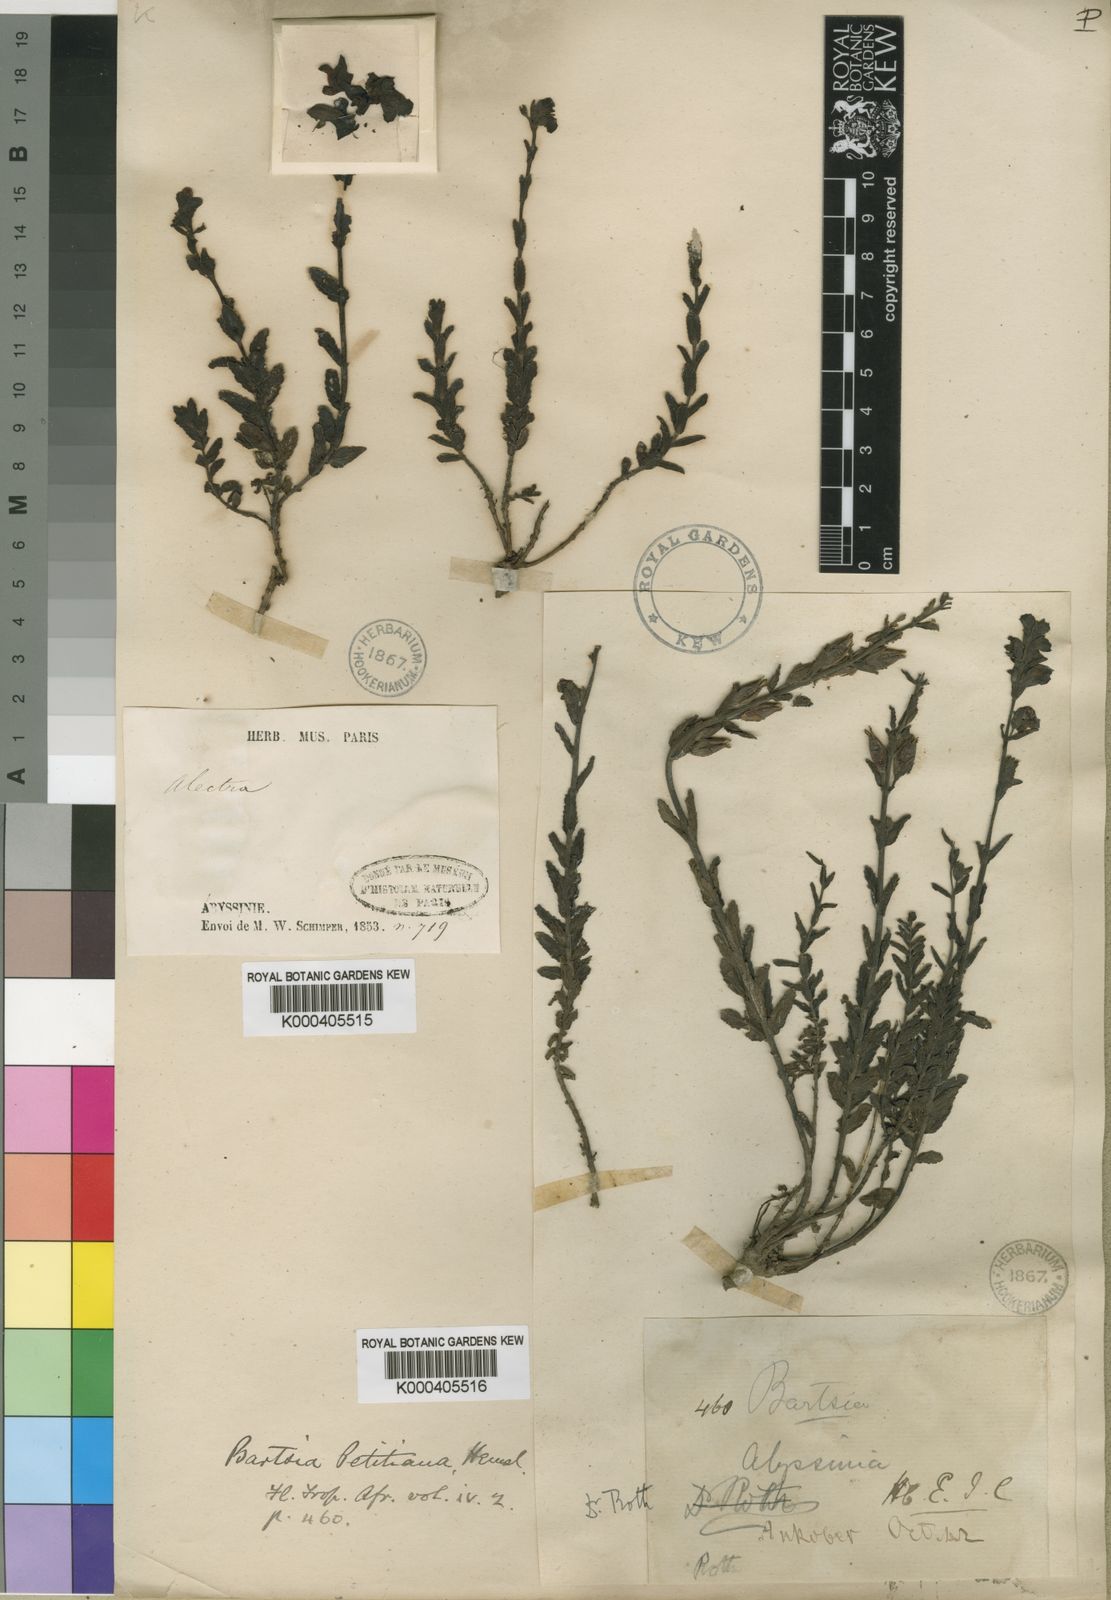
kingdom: Plantae
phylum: Tracheophyta
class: Magnoliopsida
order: Lamiales
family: Orobanchaceae
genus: Hedbergia
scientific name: Hedbergia abyssinica
